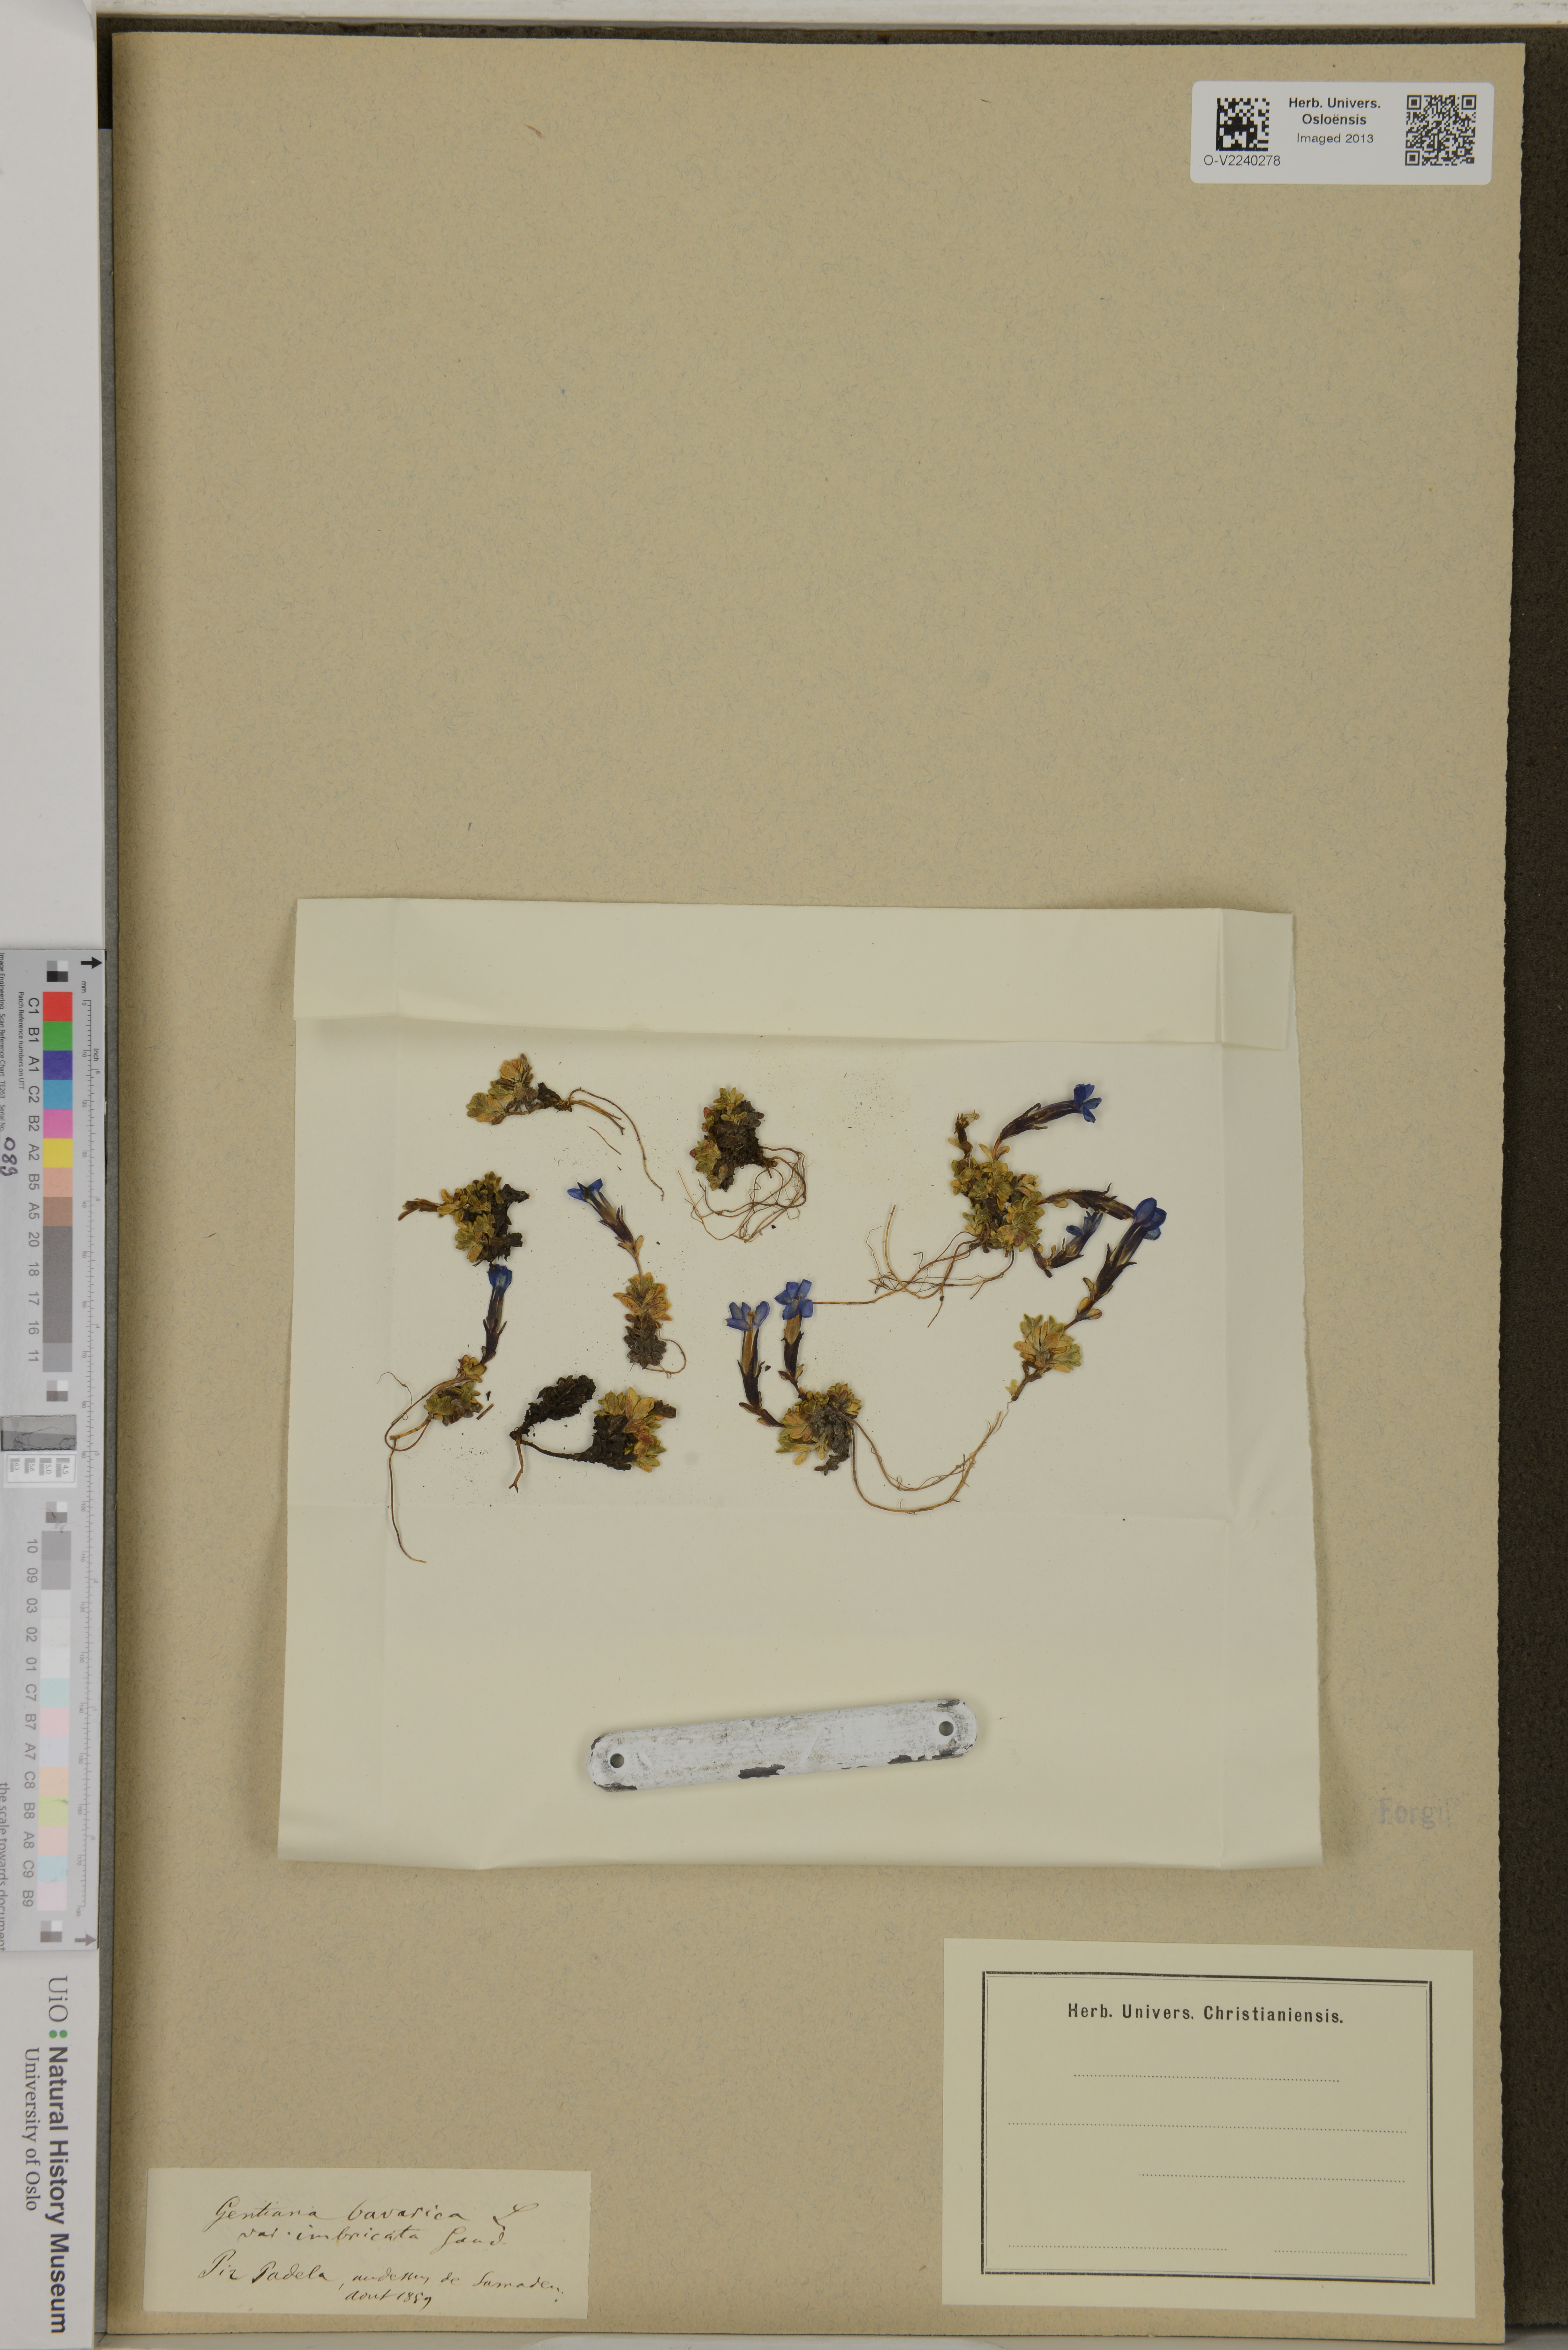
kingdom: Plantae
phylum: Tracheophyta
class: Magnoliopsida
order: Gentianales
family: Gentianaceae
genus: Gentiana
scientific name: Gentiana bavarica
